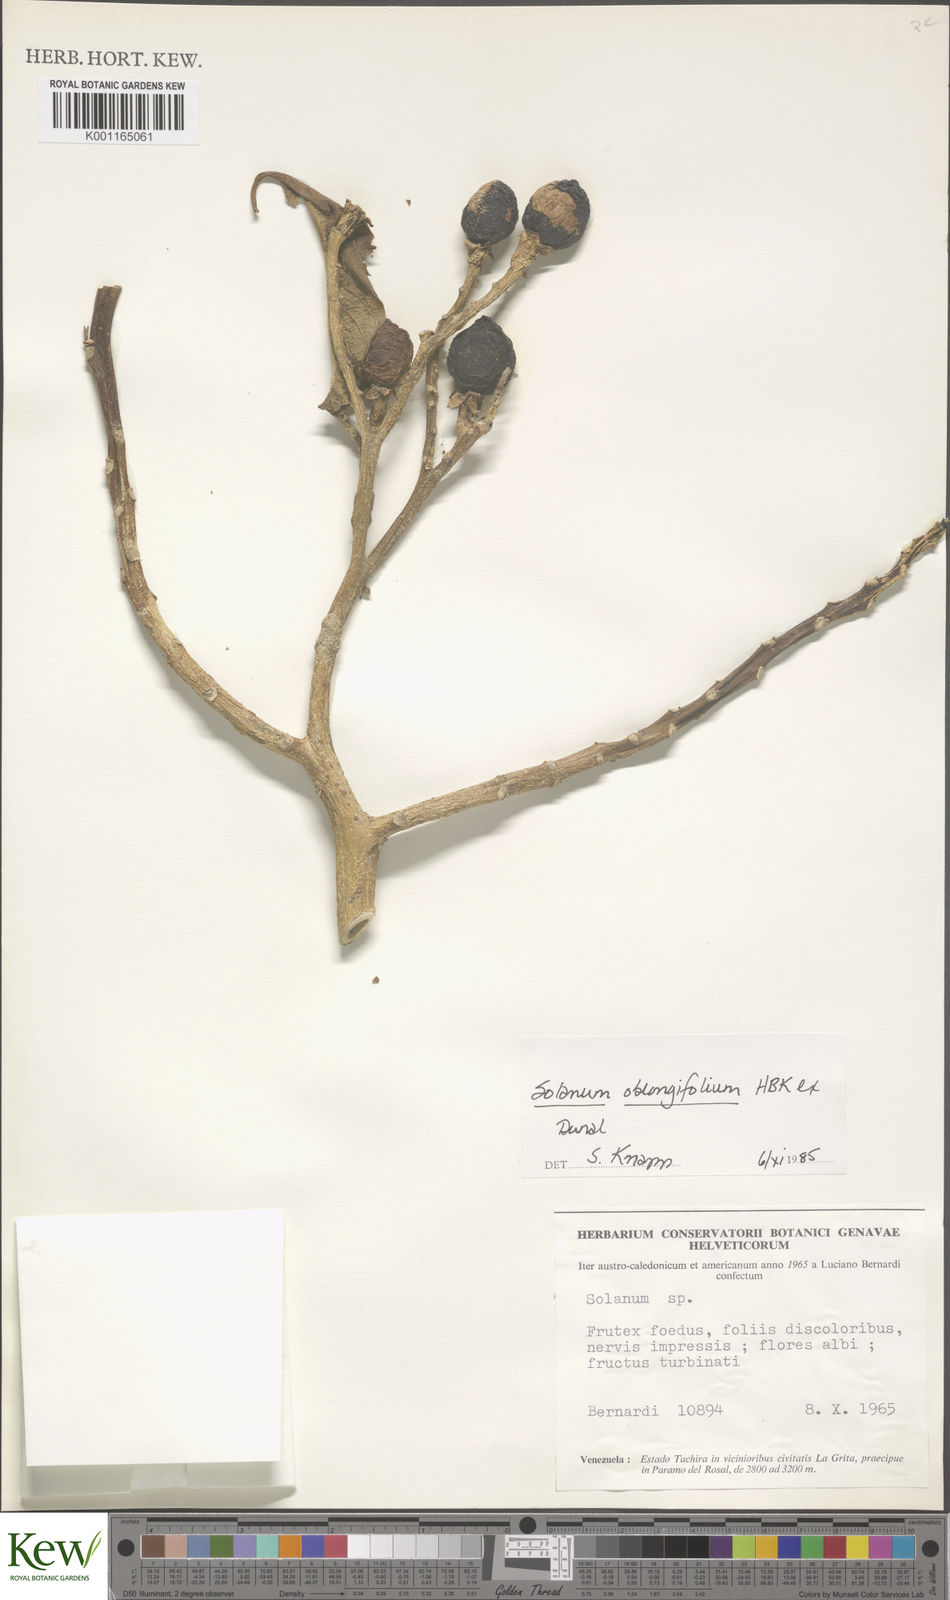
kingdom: Plantae
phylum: Tracheophyta
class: Magnoliopsida
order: Solanales
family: Solanaceae
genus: Solanum
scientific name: Solanum oblongifolium
